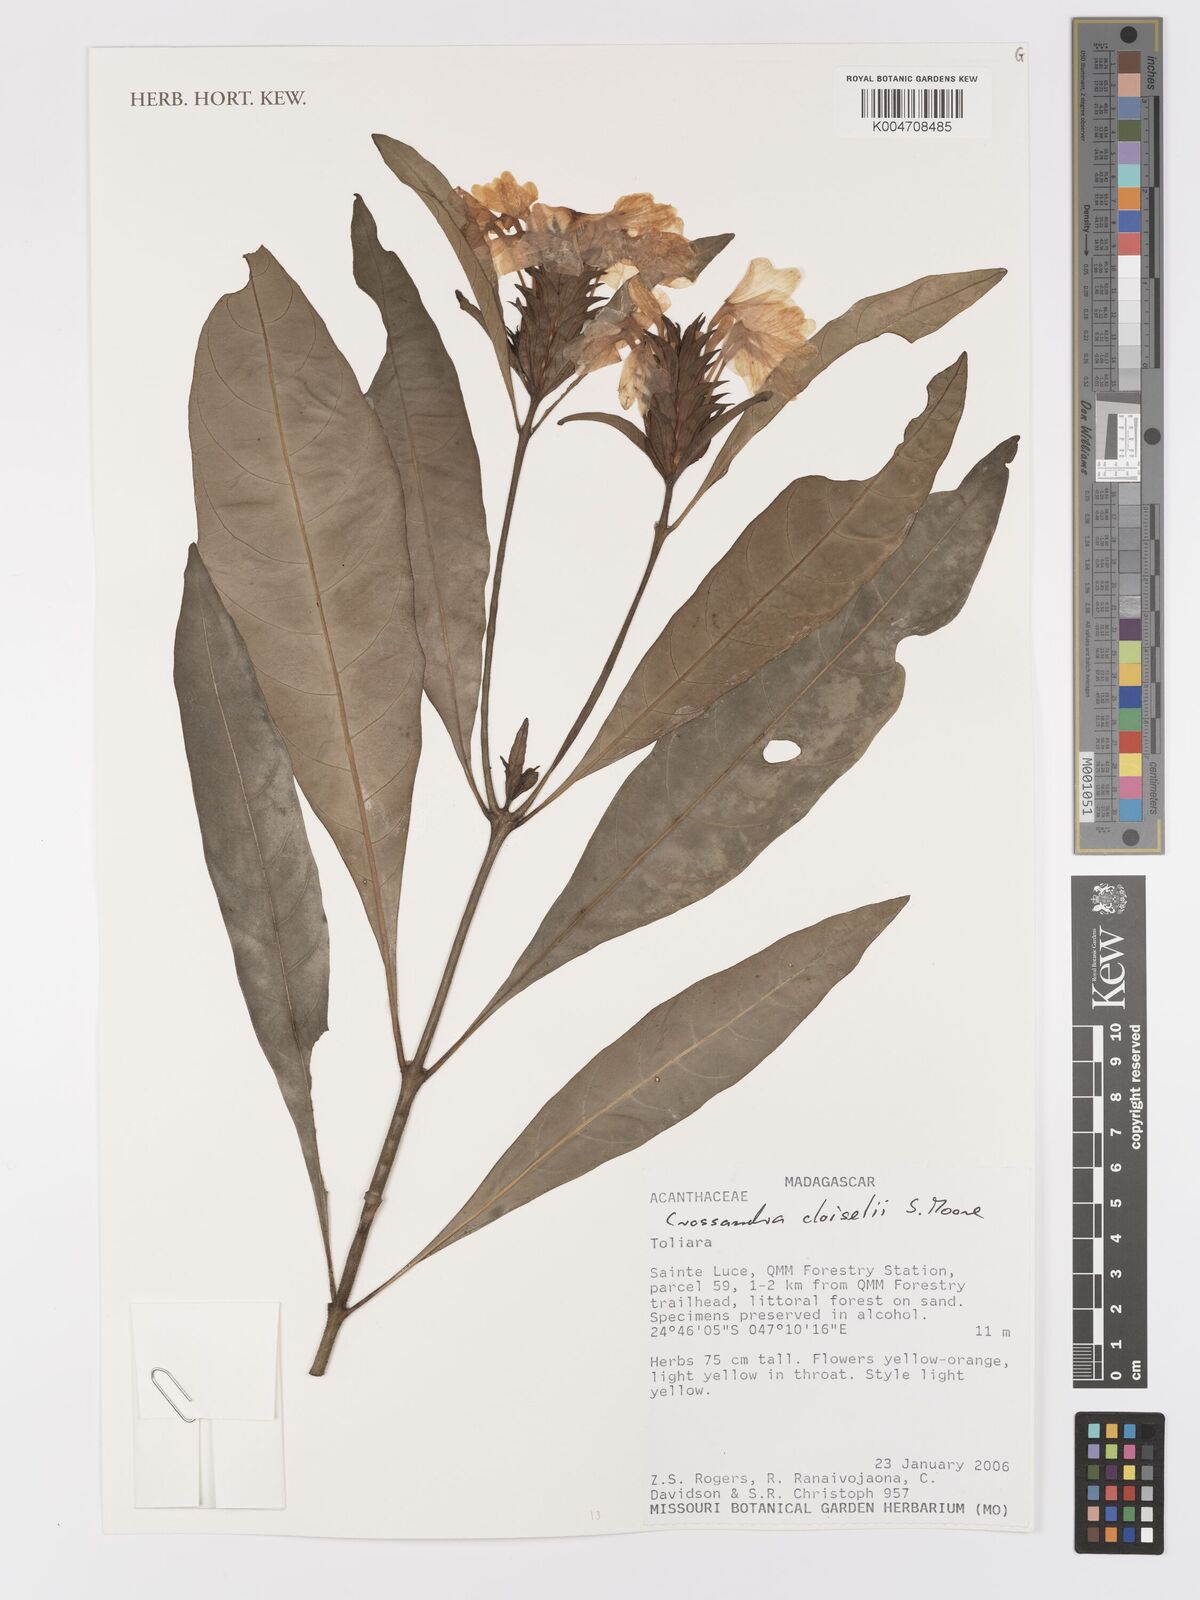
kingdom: Plantae
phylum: Tracheophyta
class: Magnoliopsida
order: Lamiales
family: Acanthaceae
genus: Crossandra
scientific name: Crossandra cloiselii
